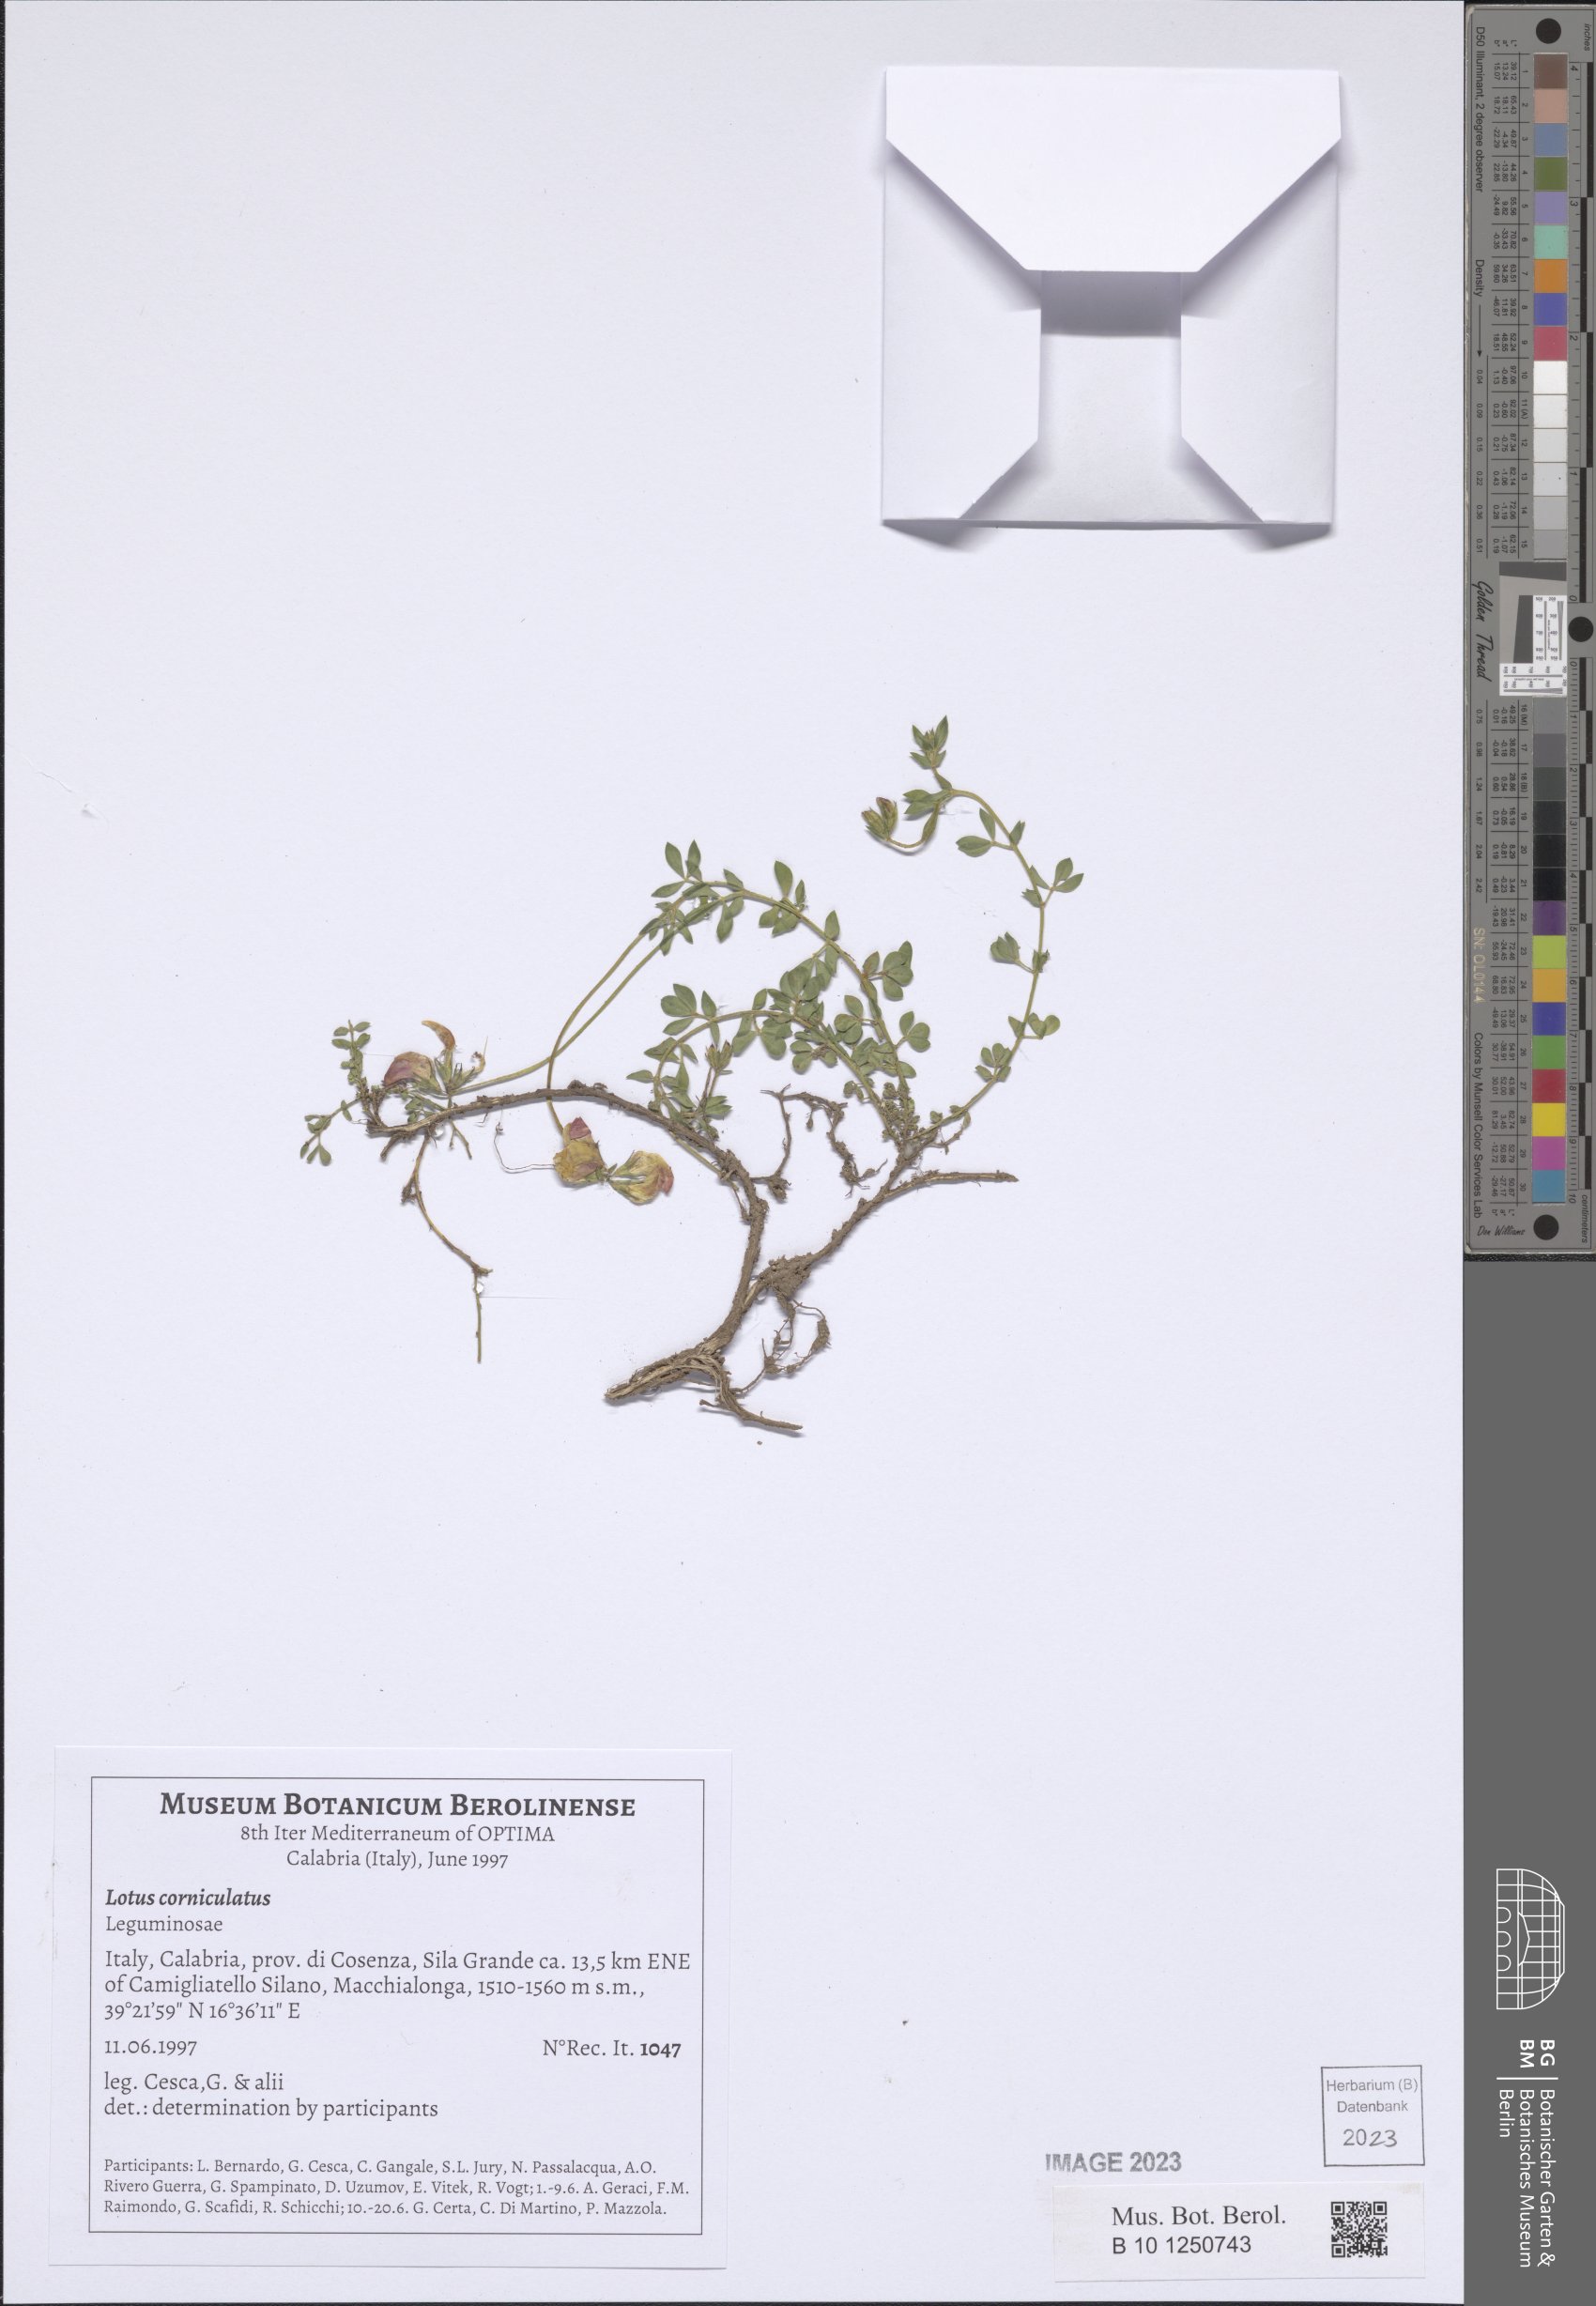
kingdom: Plantae
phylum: Tracheophyta
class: Magnoliopsida
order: Fabales
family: Fabaceae
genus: Lotus
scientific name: Lotus corniculatus
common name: Common bird's-foot-trefoil
